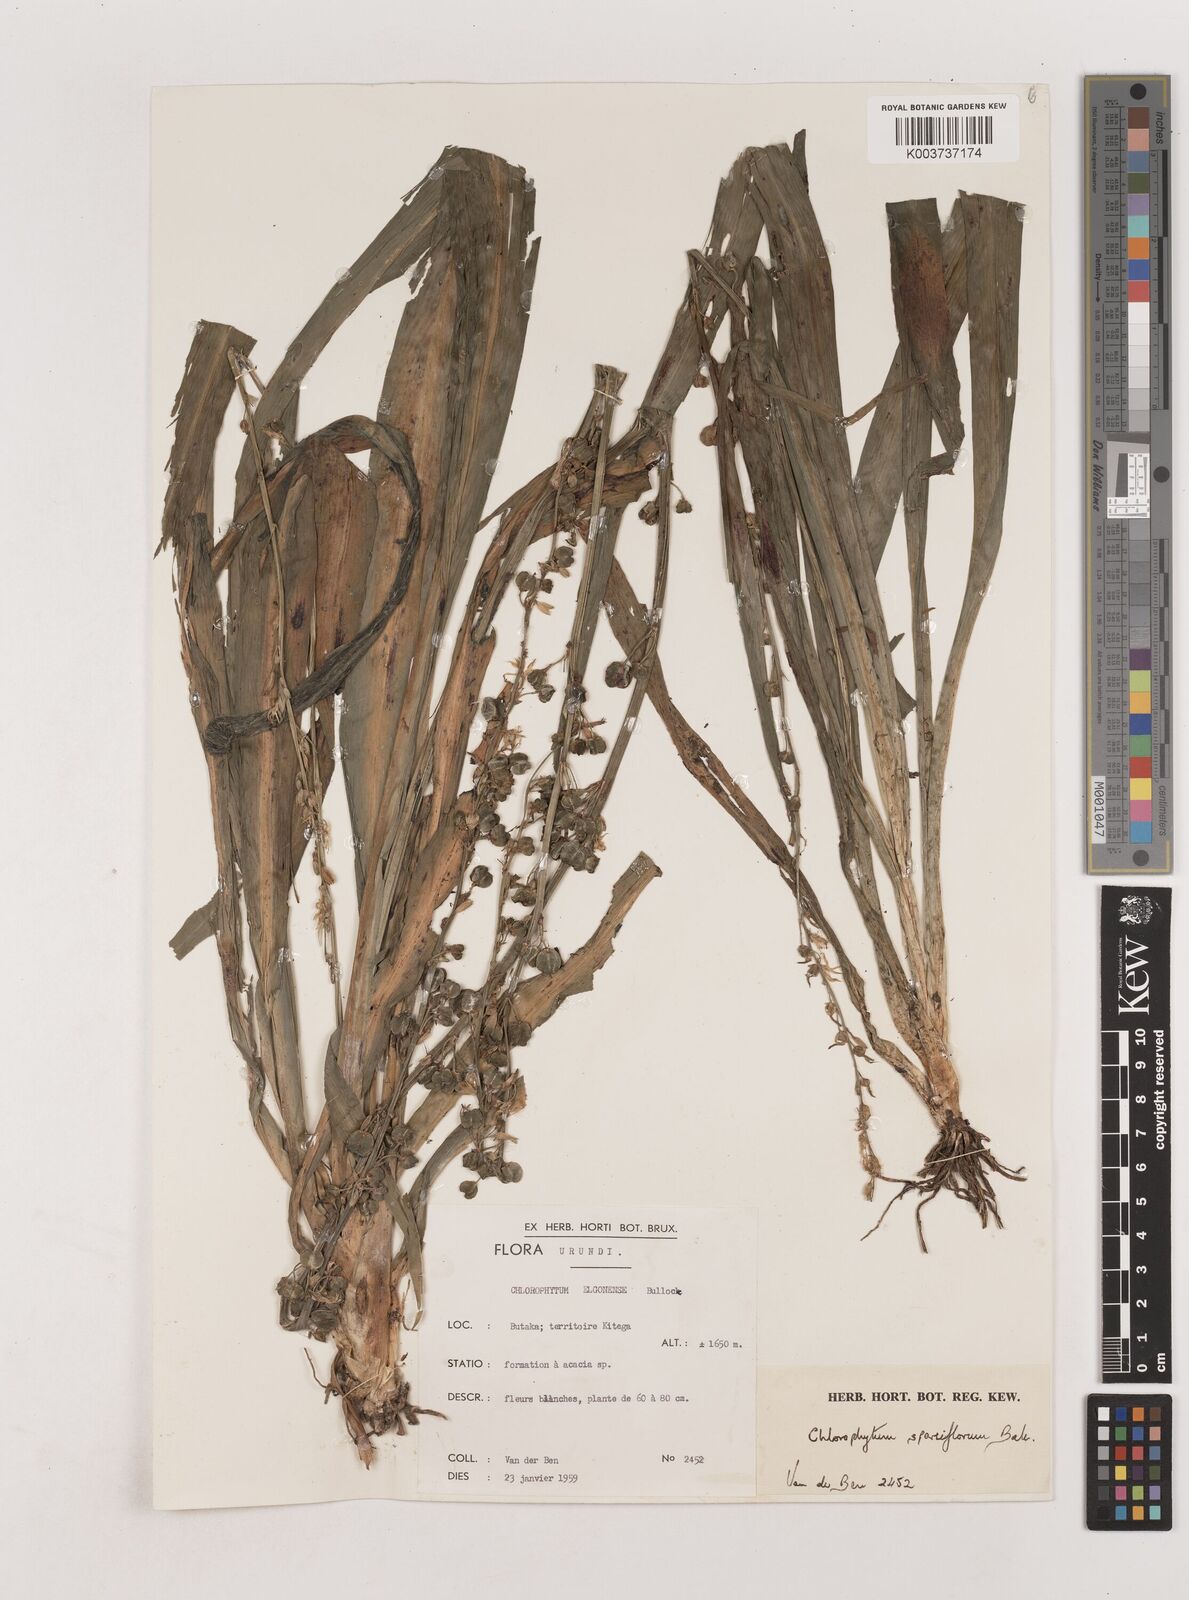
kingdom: Plantae
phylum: Tracheophyta
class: Liliopsida
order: Asparagales
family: Asparagaceae
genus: Chlorophytum
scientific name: Chlorophytum sparsiflorum
